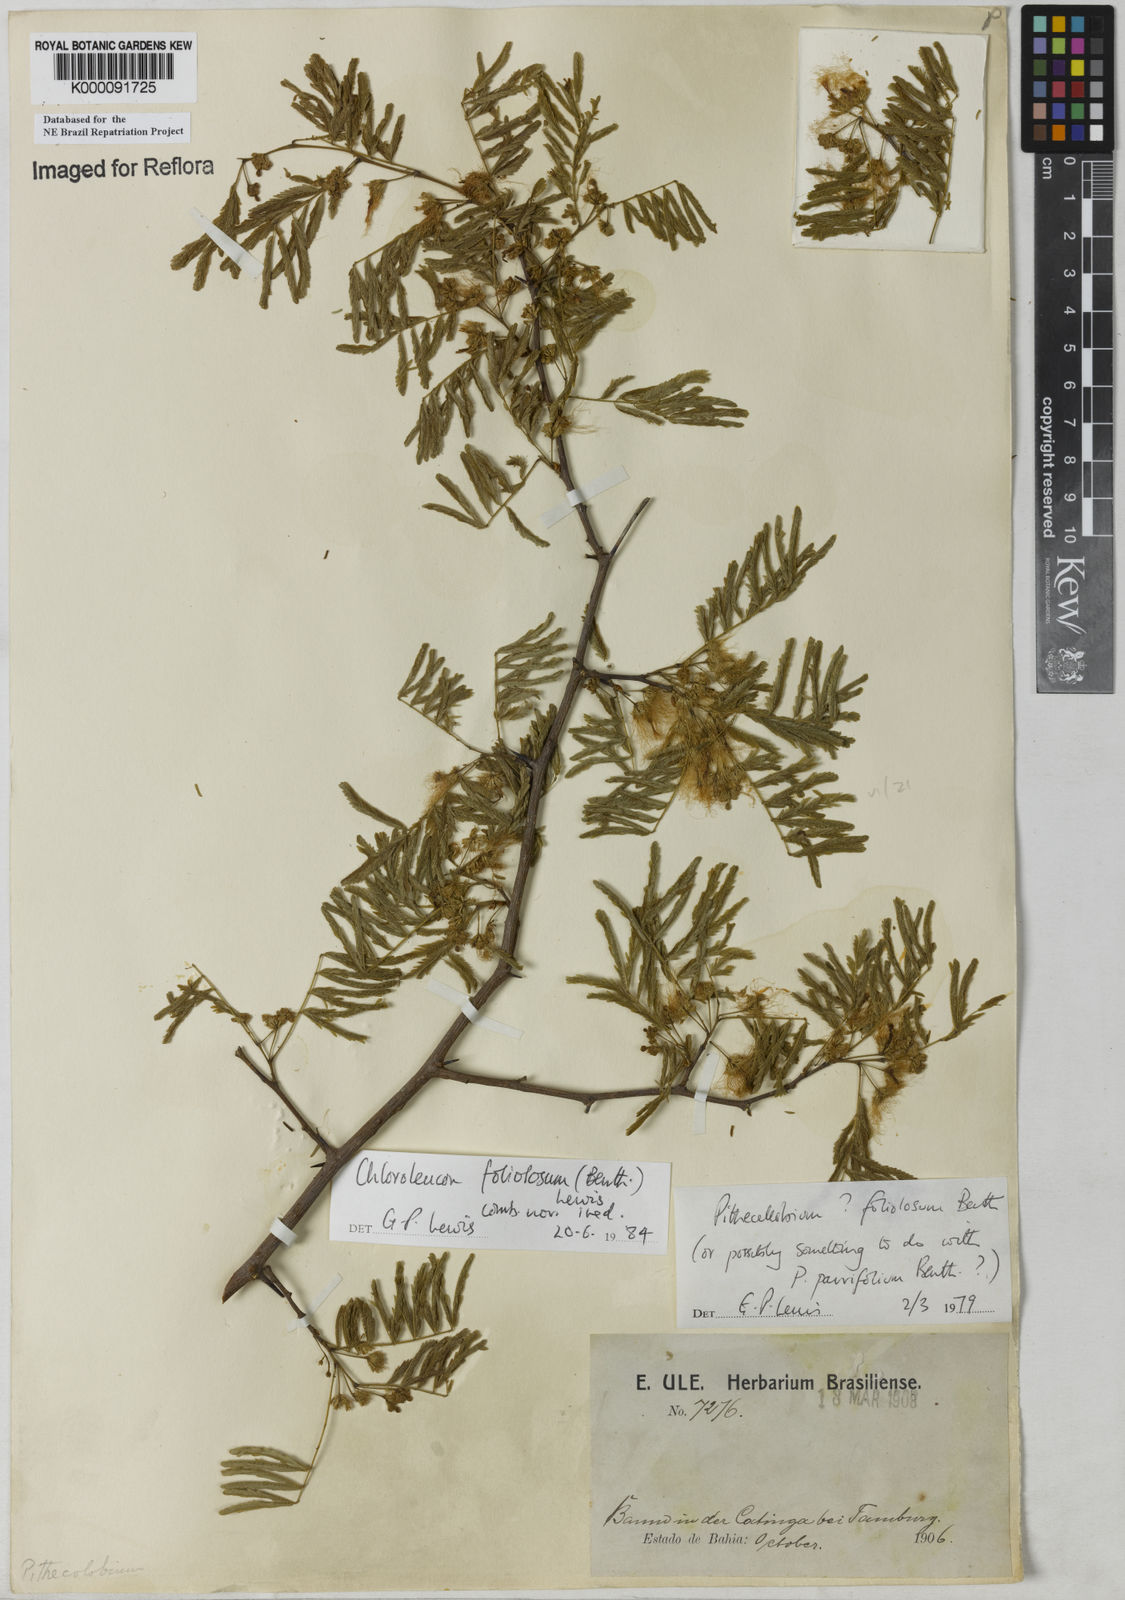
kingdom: Plantae
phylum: Tracheophyta
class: Magnoliopsida
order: Fabales
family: Fabaceae
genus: Chloroleucon
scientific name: Chloroleucon foliolosum
